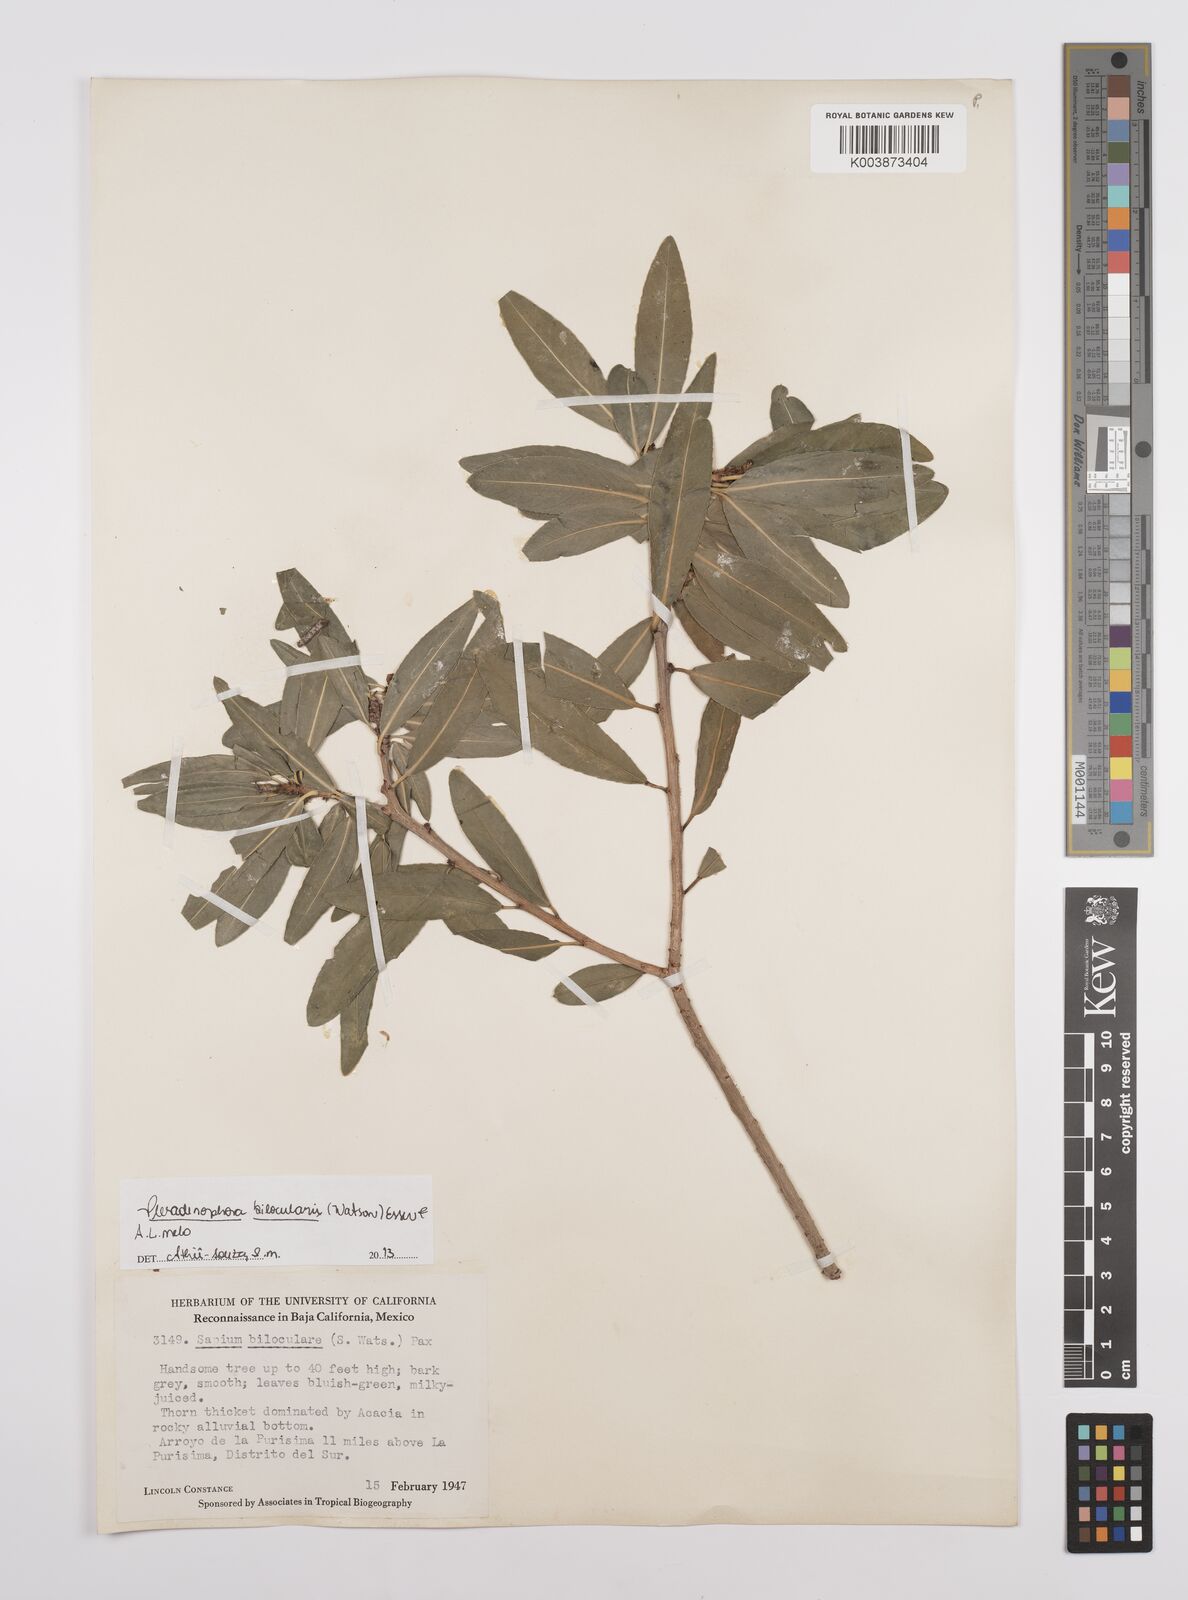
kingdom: Plantae
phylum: Tracheophyta
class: Magnoliopsida
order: Malpighiales
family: Euphorbiaceae
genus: Pleradenophora
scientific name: Pleradenophora bilocularis
